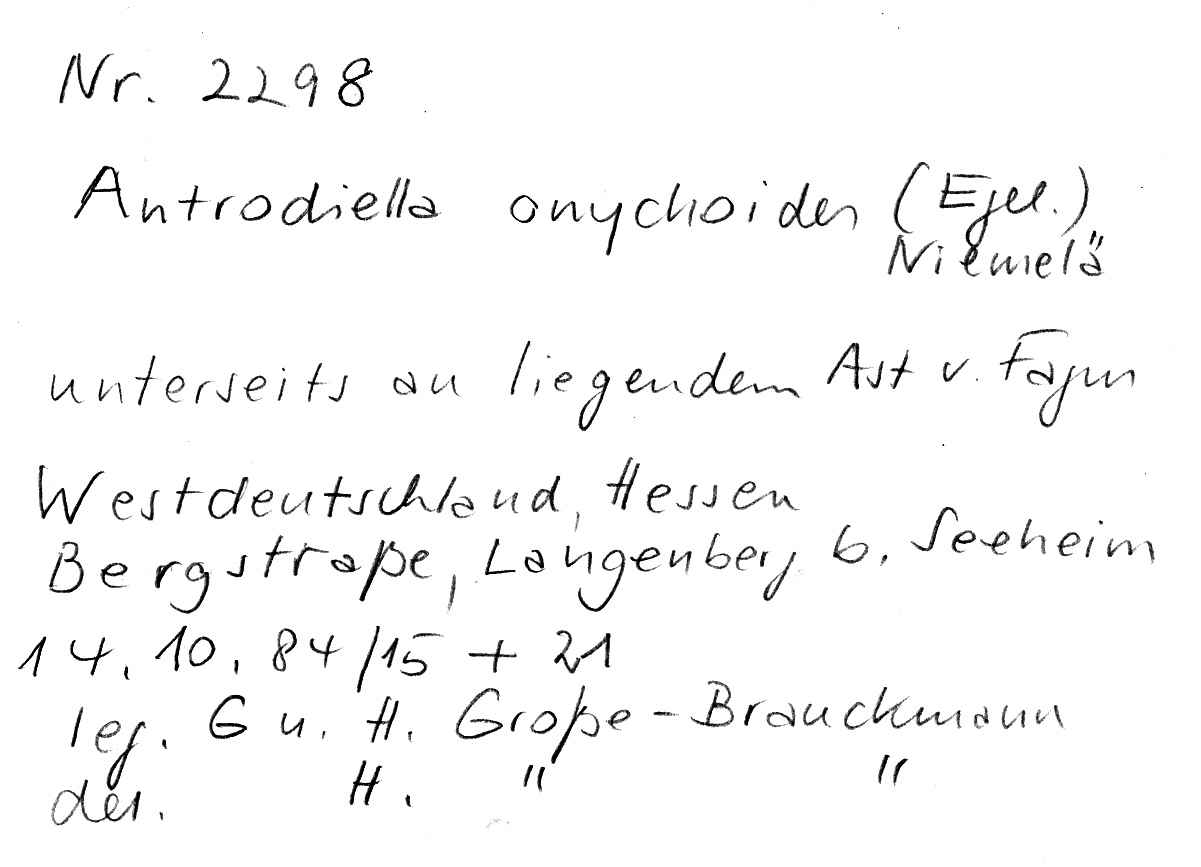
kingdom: Fungi
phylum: Basidiomycota
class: Agaricomycetes
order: Polyporales
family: Steccherinaceae
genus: Antrodiella
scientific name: Antrodiella onychoides
